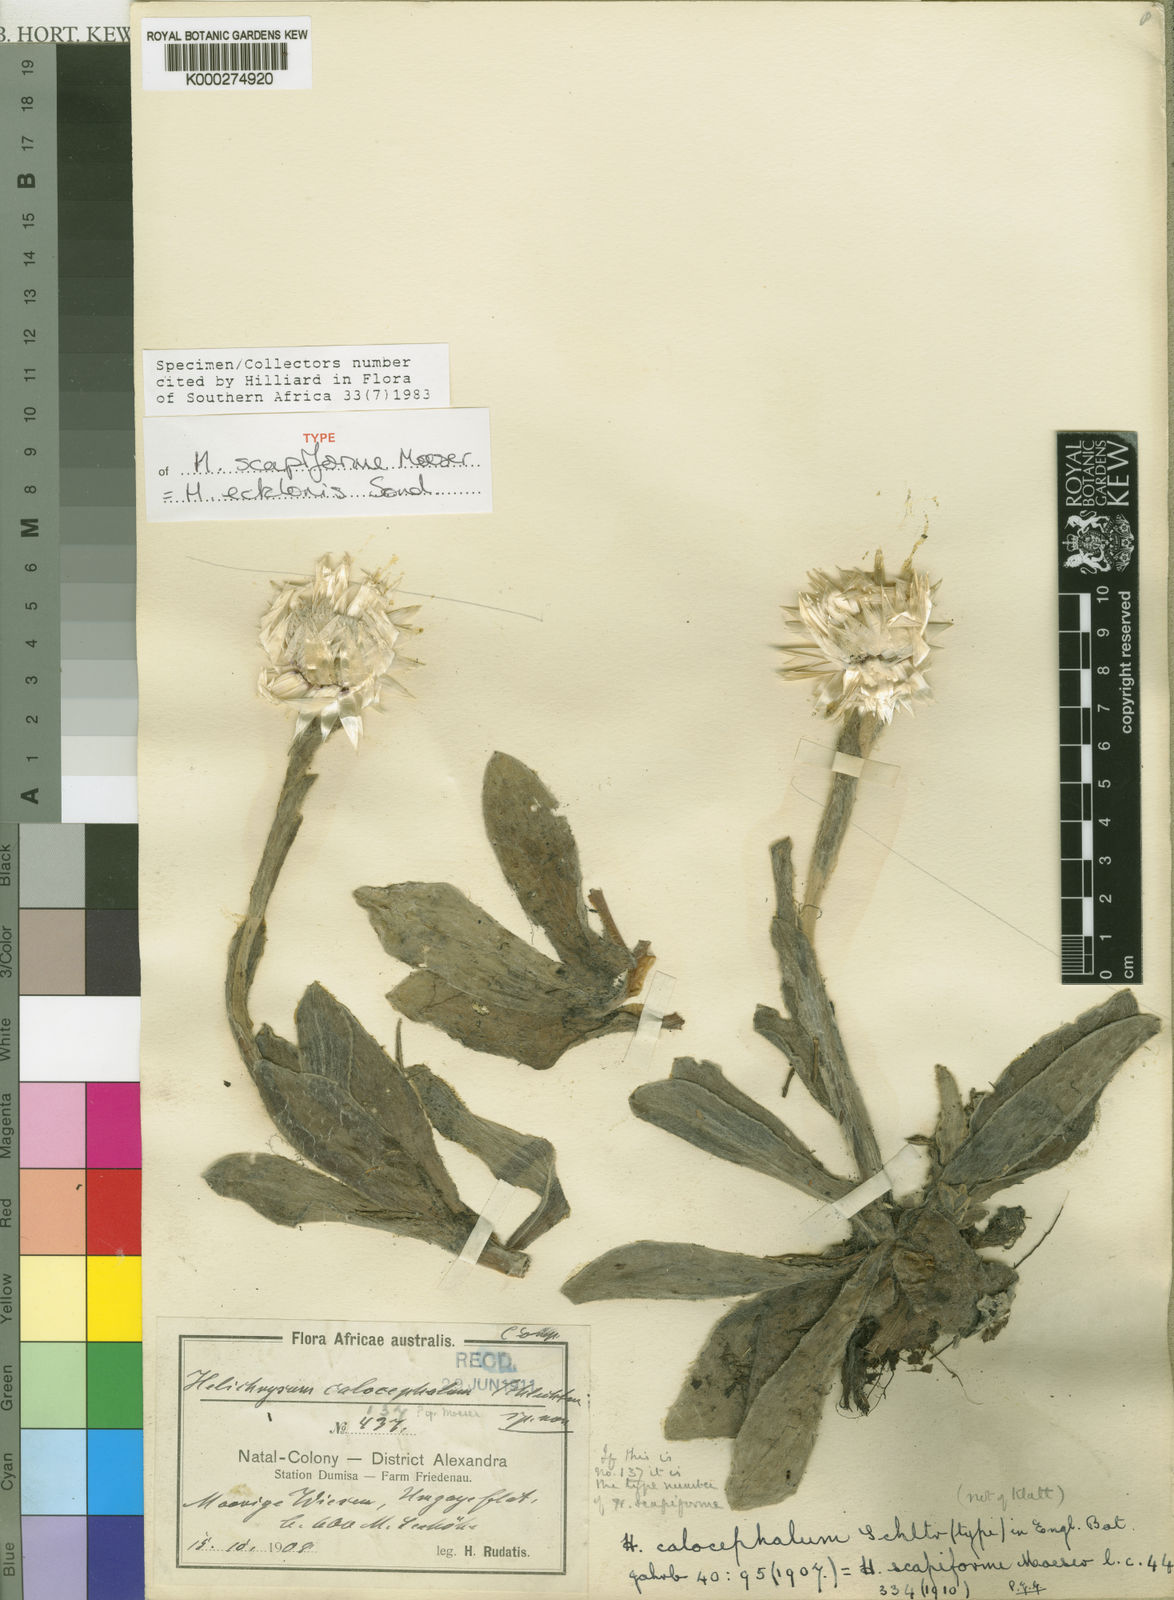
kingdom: Plantae
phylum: Tracheophyta
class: Magnoliopsida
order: Asterales
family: Asteraceae
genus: Helichrysum
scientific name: Helichrysum ecklonis
